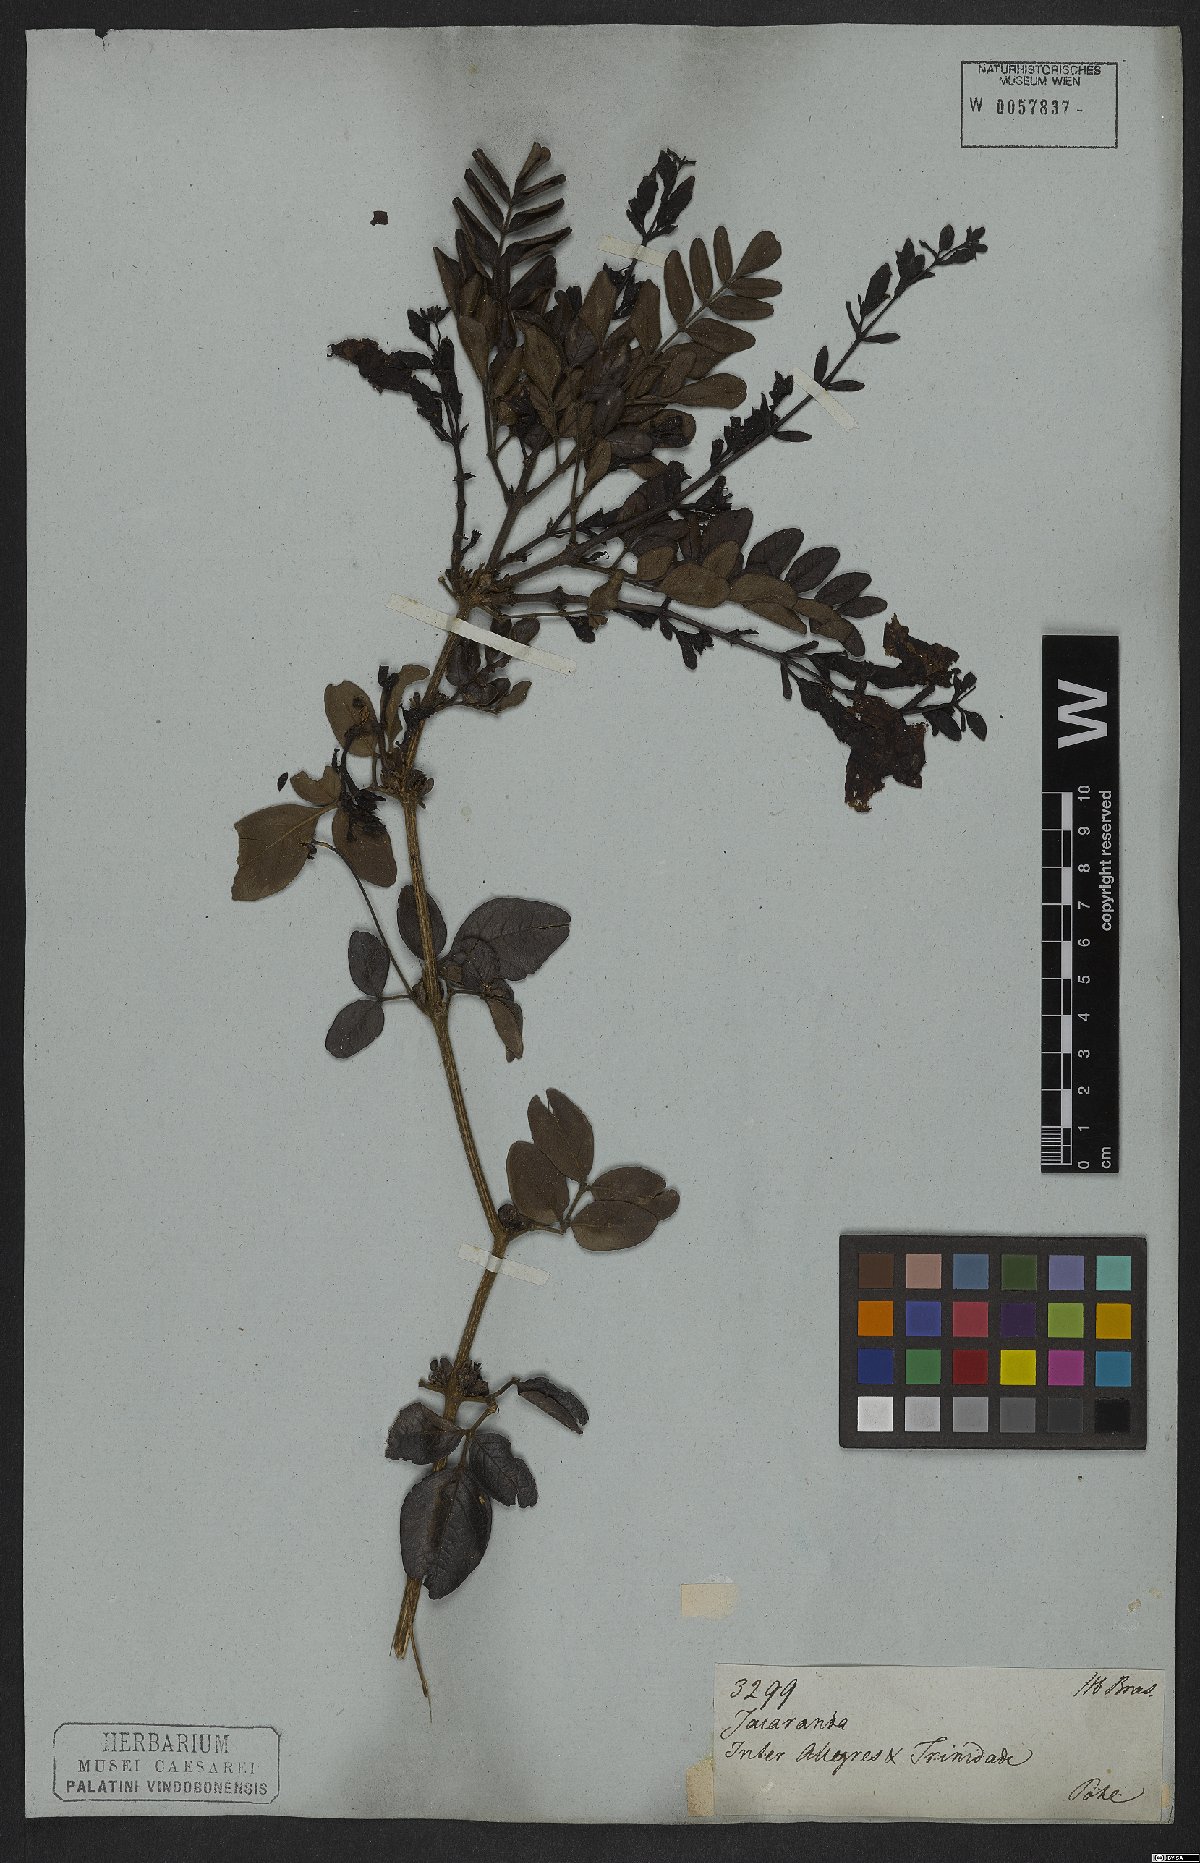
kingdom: Plantae
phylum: Tracheophyta
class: Magnoliopsida
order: Lamiales
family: Bignoniaceae
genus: Adenocalymma
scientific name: Adenocalymma pubescens
